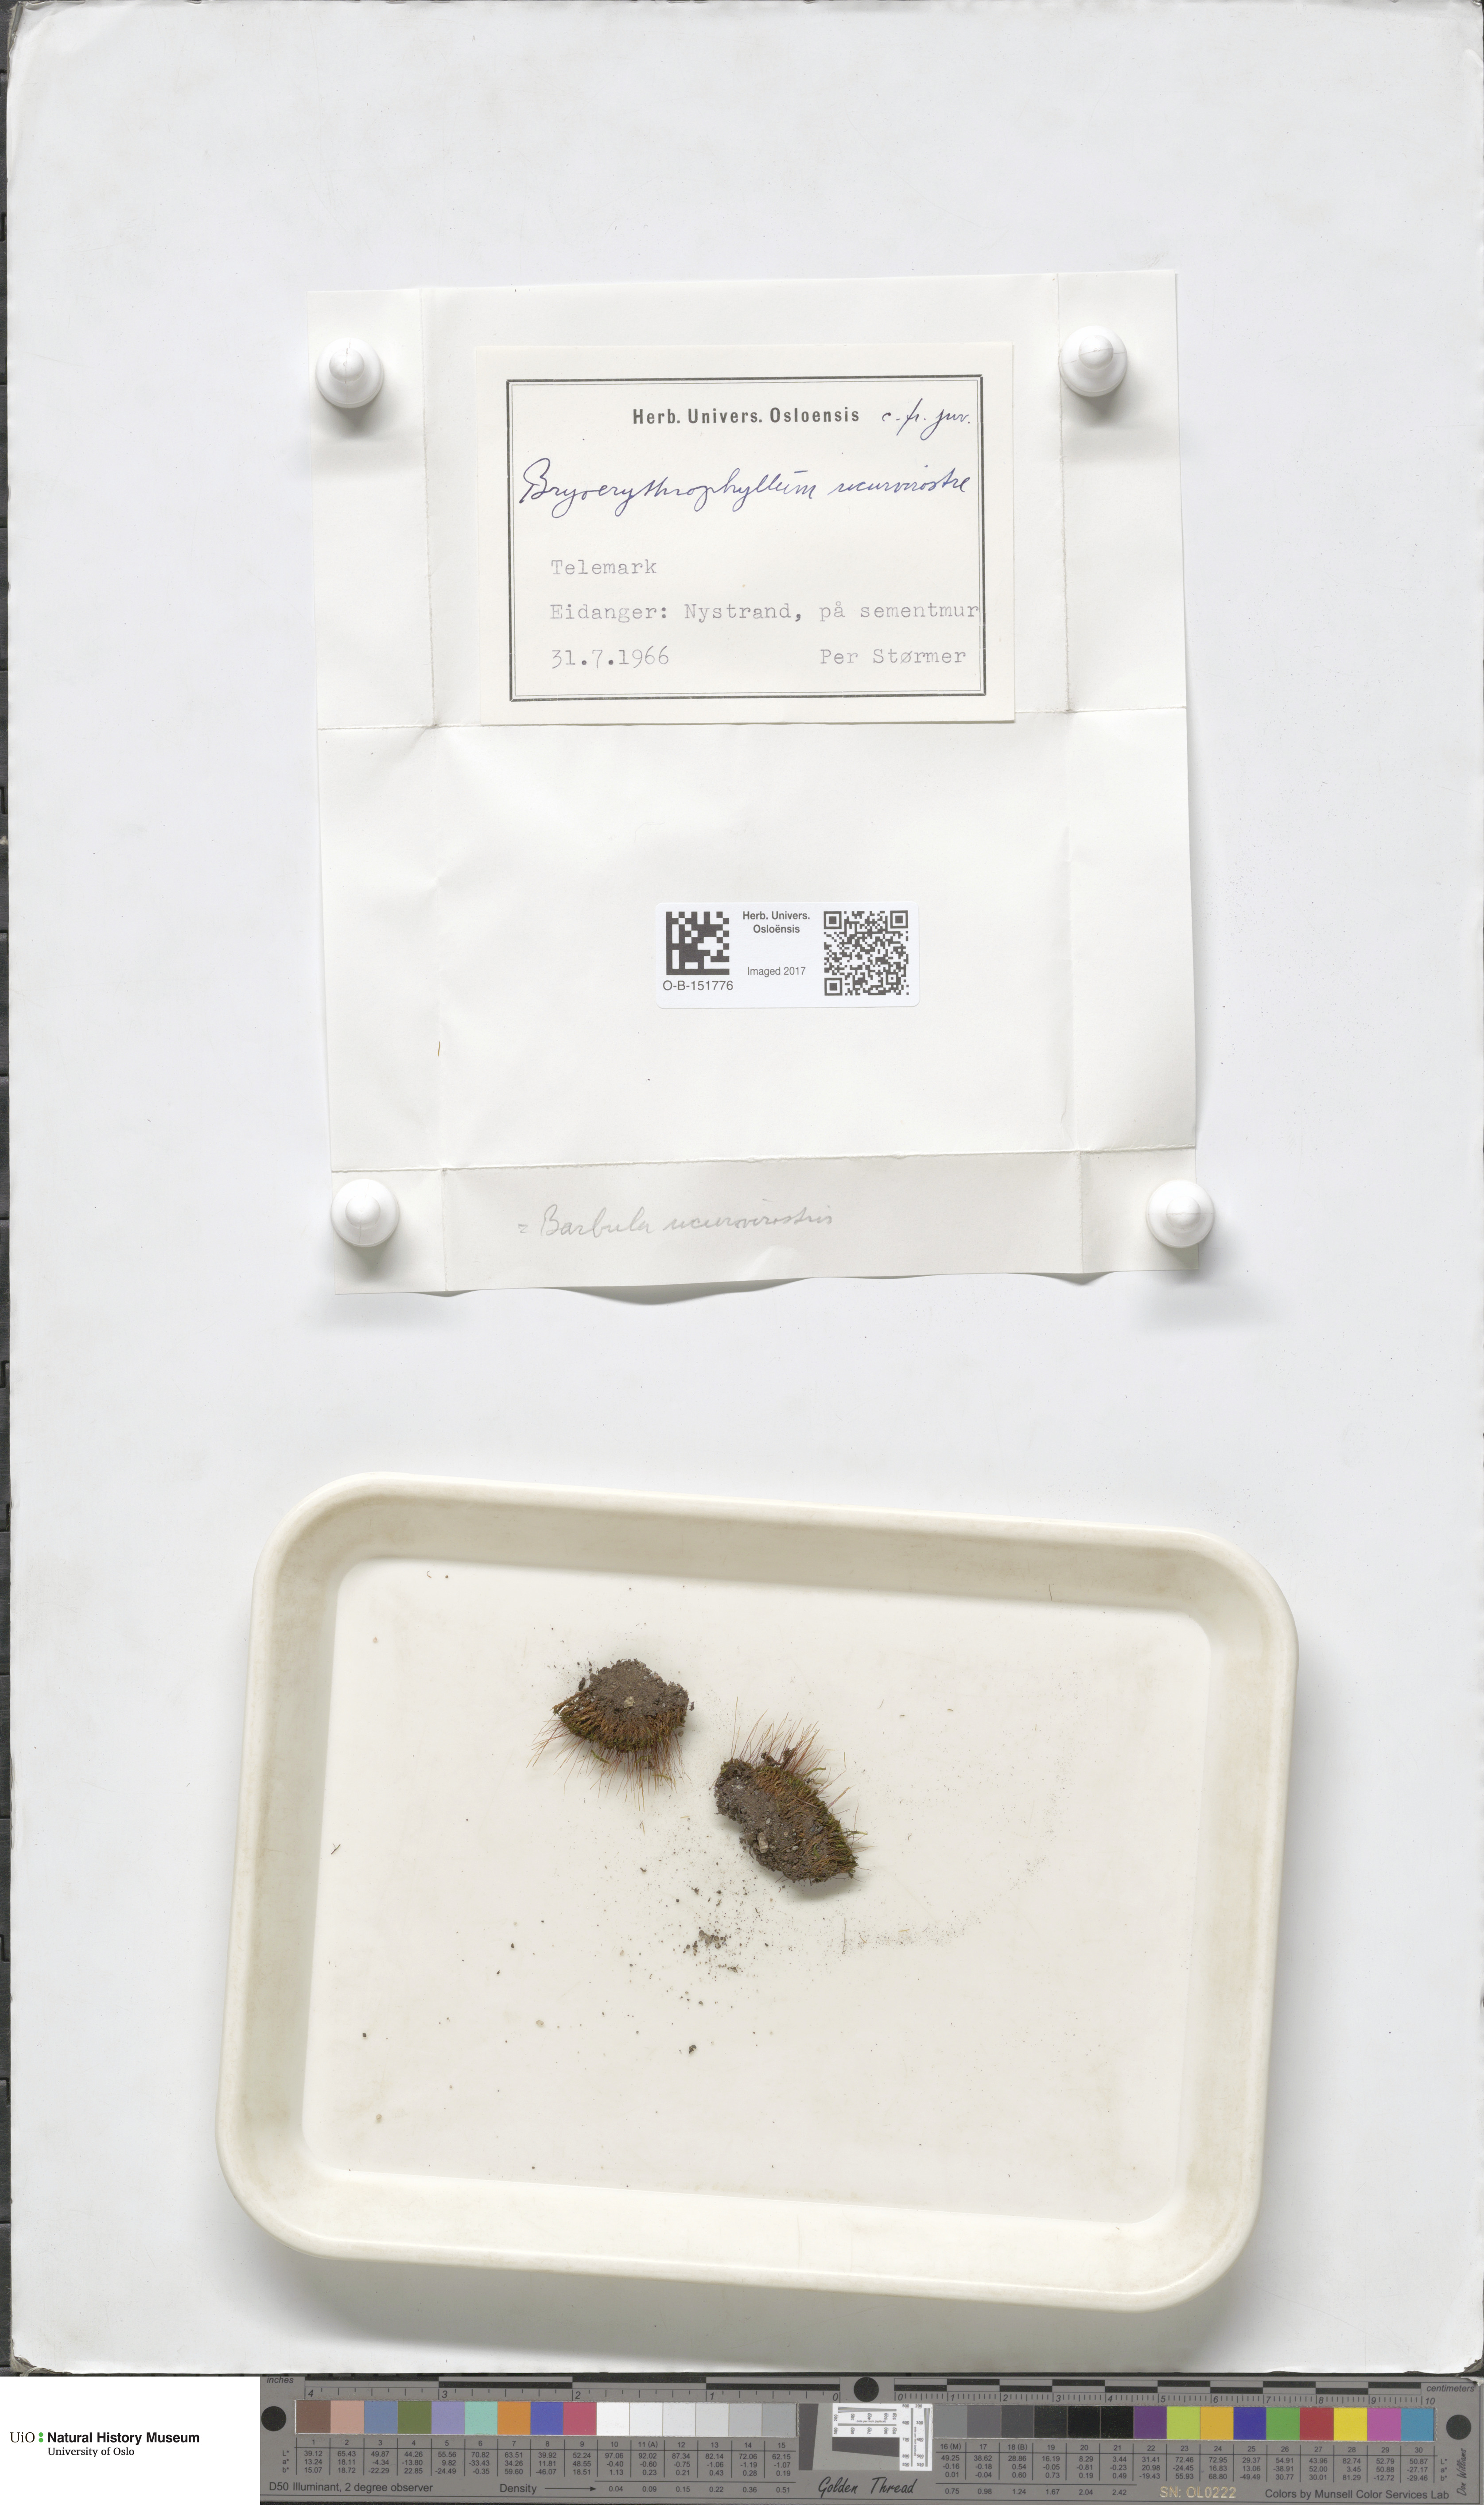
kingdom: Plantae
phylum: Bryophyta
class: Bryopsida
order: Pottiales
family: Pottiaceae
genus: Bryoerythrophyllum
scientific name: Bryoerythrophyllum recurvirostrum
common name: Red beard moss
